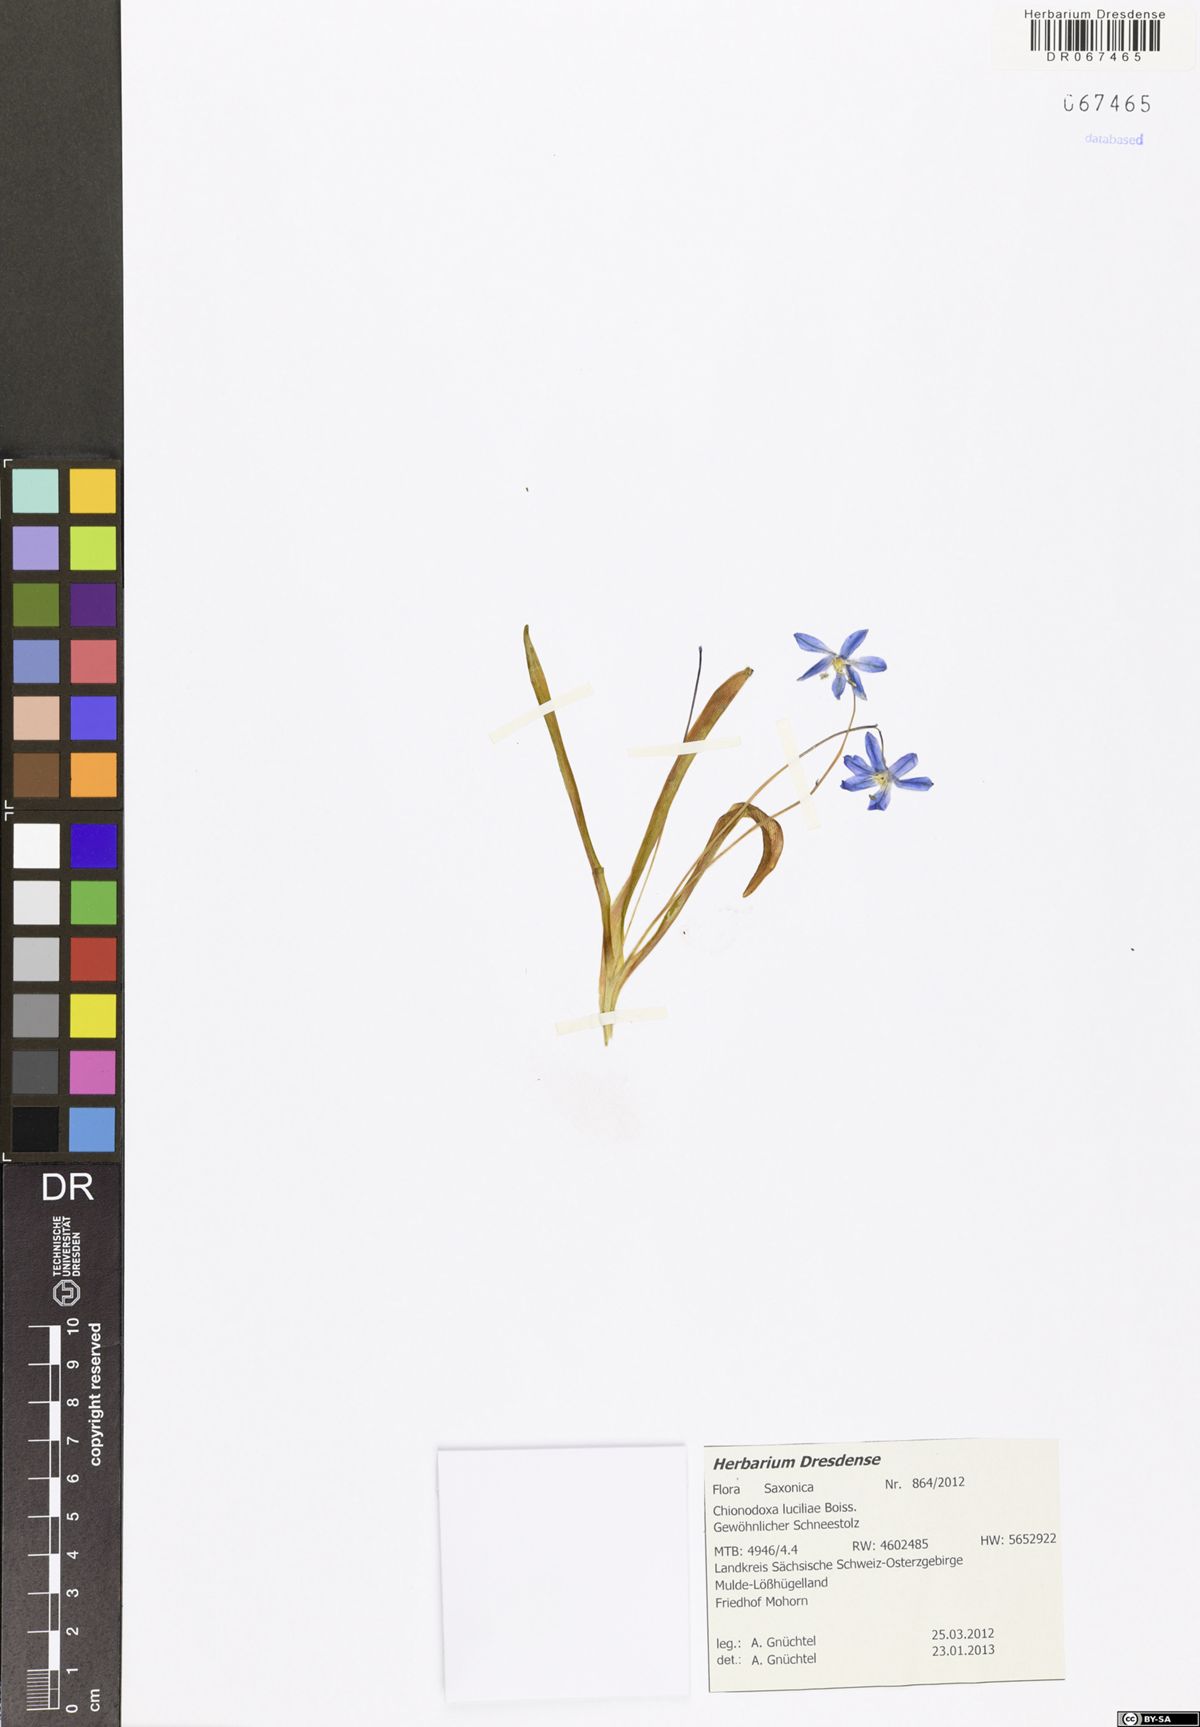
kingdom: Plantae
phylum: Tracheophyta
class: Liliopsida
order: Asparagales
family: Asparagaceae
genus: Scilla
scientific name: Scilla luciliae
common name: Boissier's glory-of-the-snow
